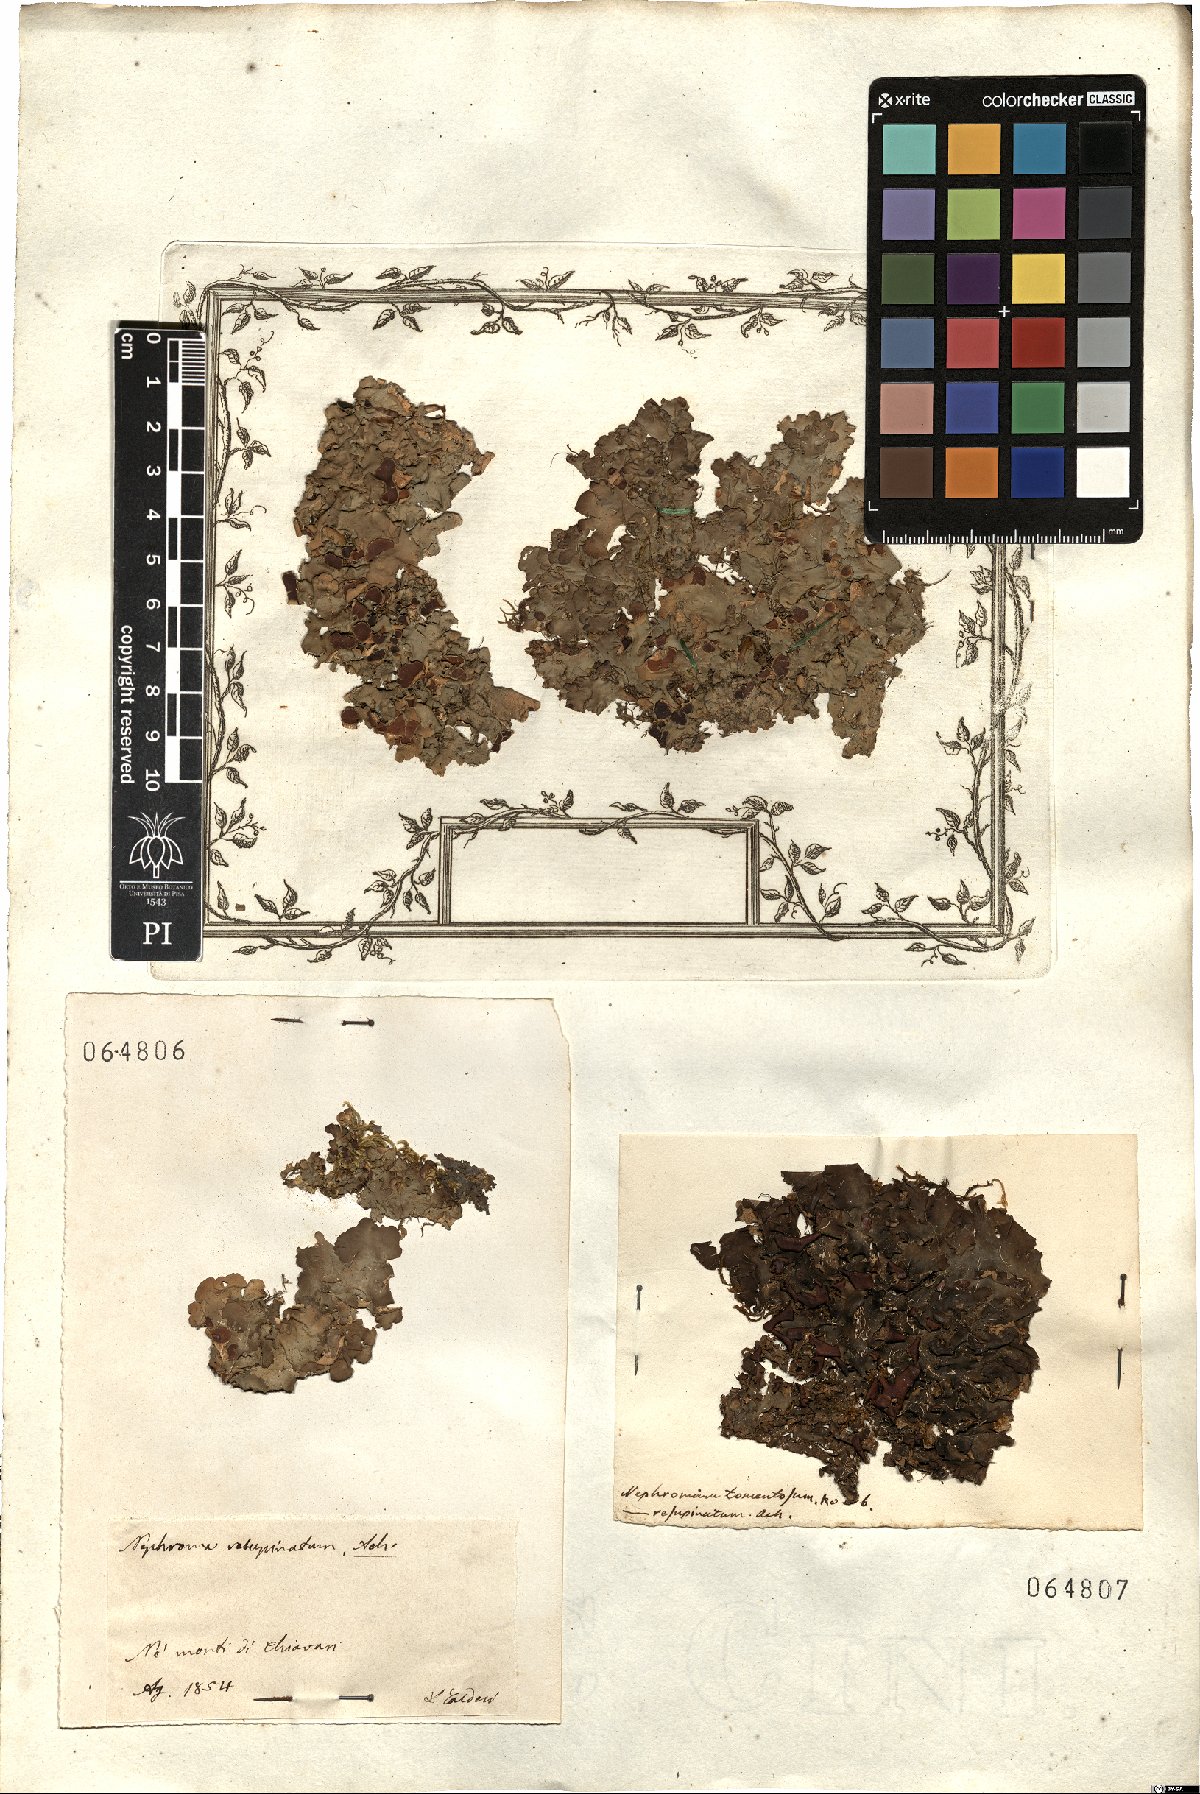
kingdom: Fungi
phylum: Ascomycota
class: Lecanoromycetes
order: Peltigerales
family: Nephromataceae
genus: Nephroma
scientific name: Nephroma resupinatum
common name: Pimpled kidney lichen
